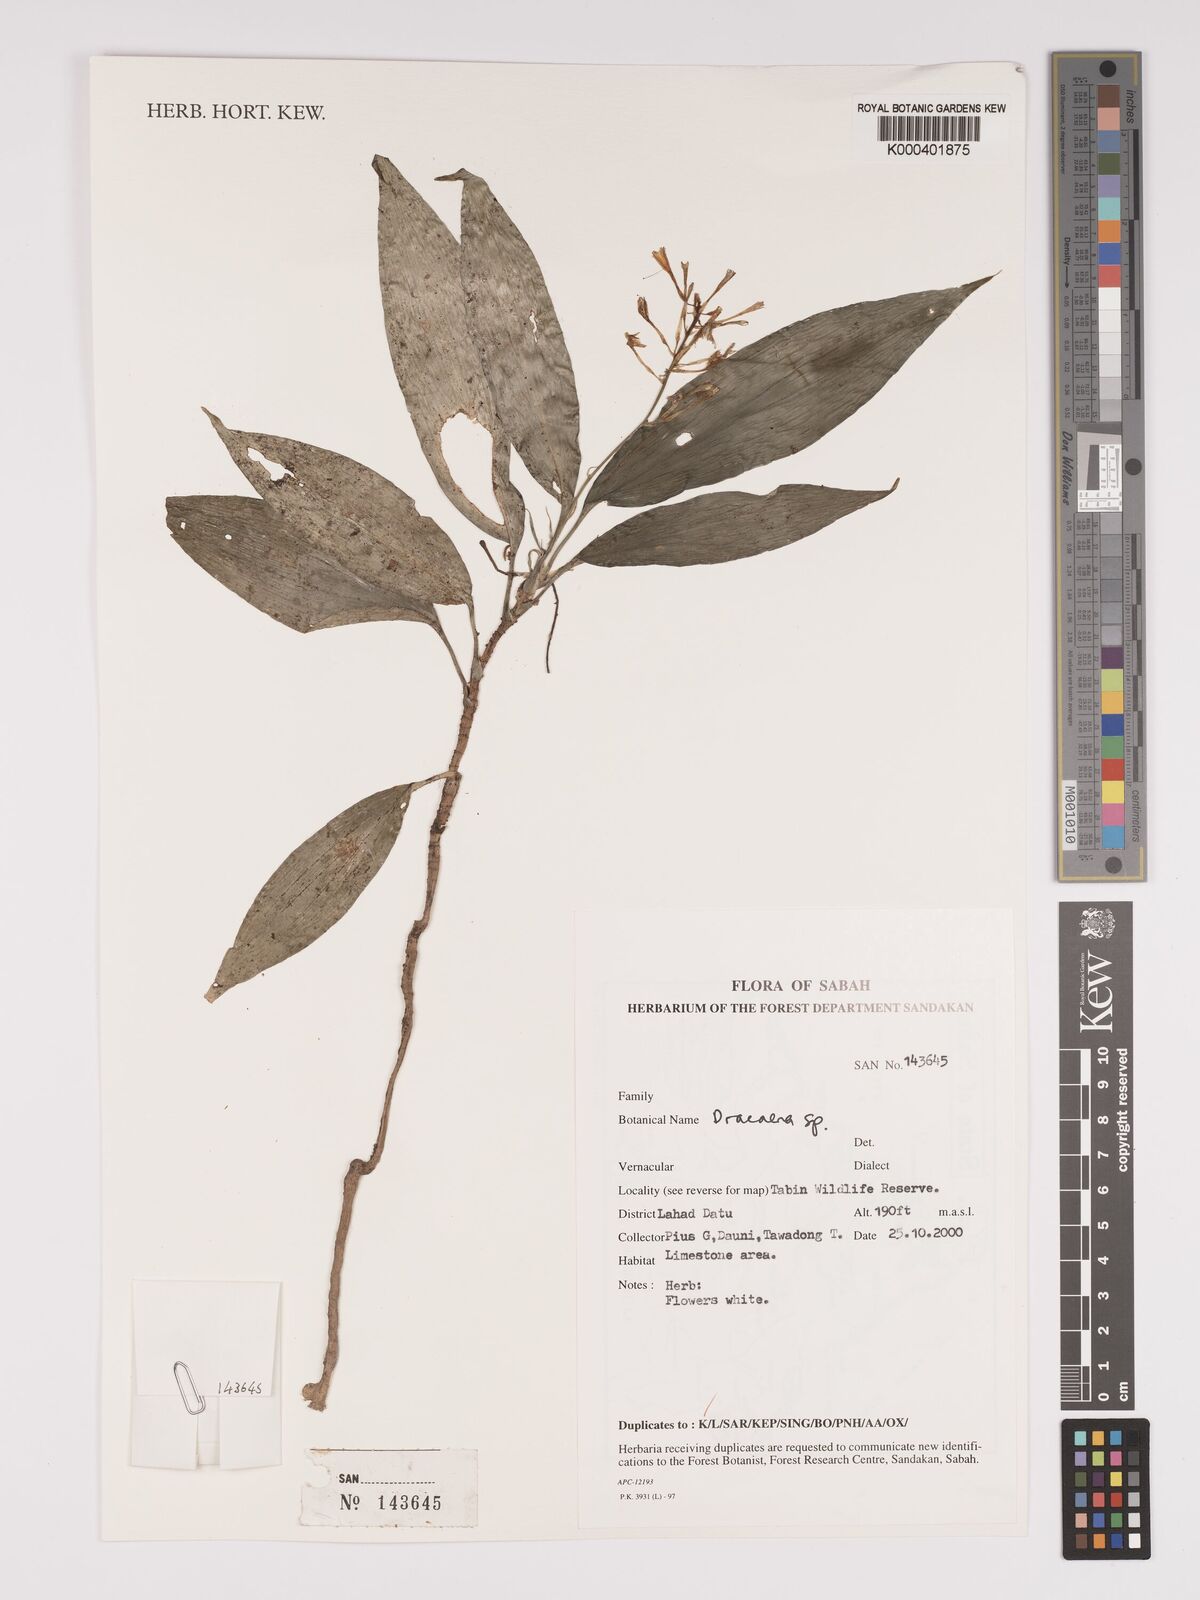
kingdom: Plantae
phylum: Tracheophyta
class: Liliopsida
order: Asparagales
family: Asparagaceae
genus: Dracaena
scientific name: Dracaena
